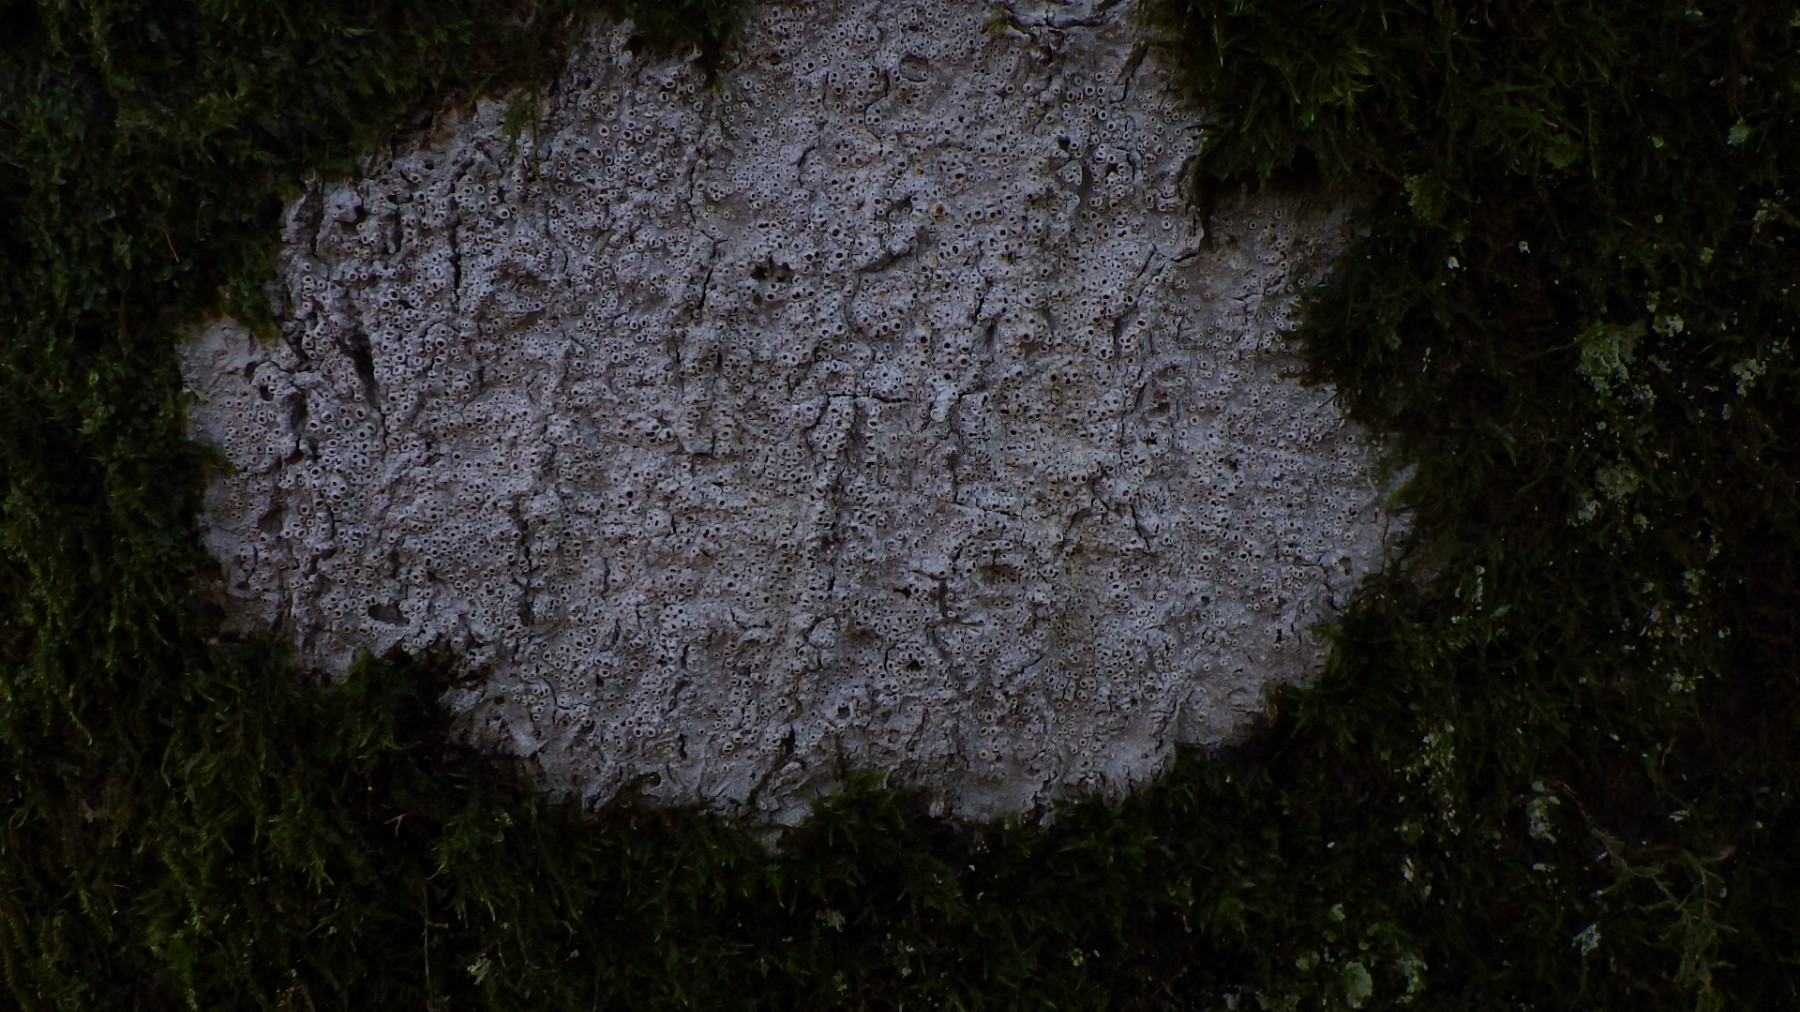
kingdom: Fungi
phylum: Ascomycota
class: Lecanoromycetes
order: Ostropales
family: Graphidaceae
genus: Thelotrema
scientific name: Thelotrema lepadinum
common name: almindelig slørkantlav
